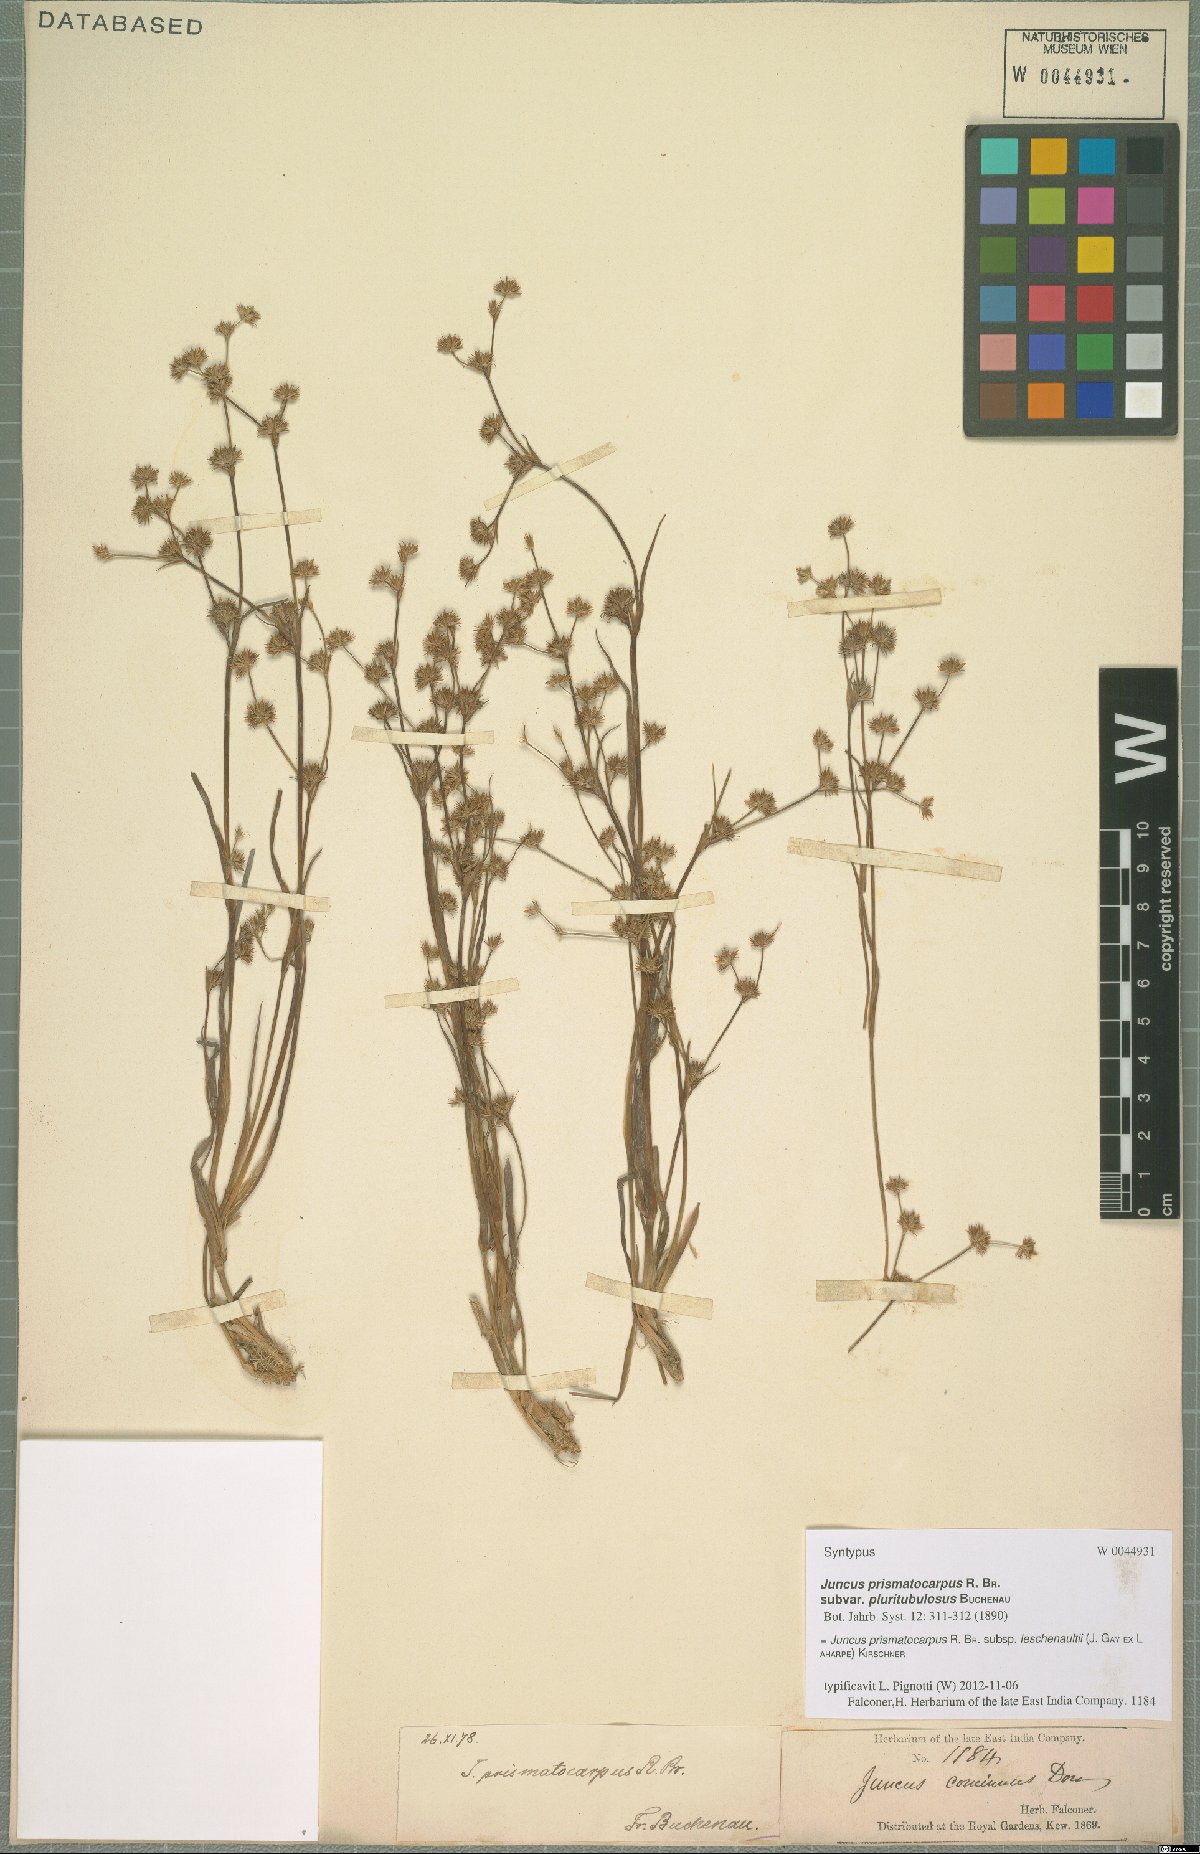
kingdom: Plantae
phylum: Tracheophyta
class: Liliopsida
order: Poales
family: Juncaceae
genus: Juncus
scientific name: Juncus prismatocarpus
